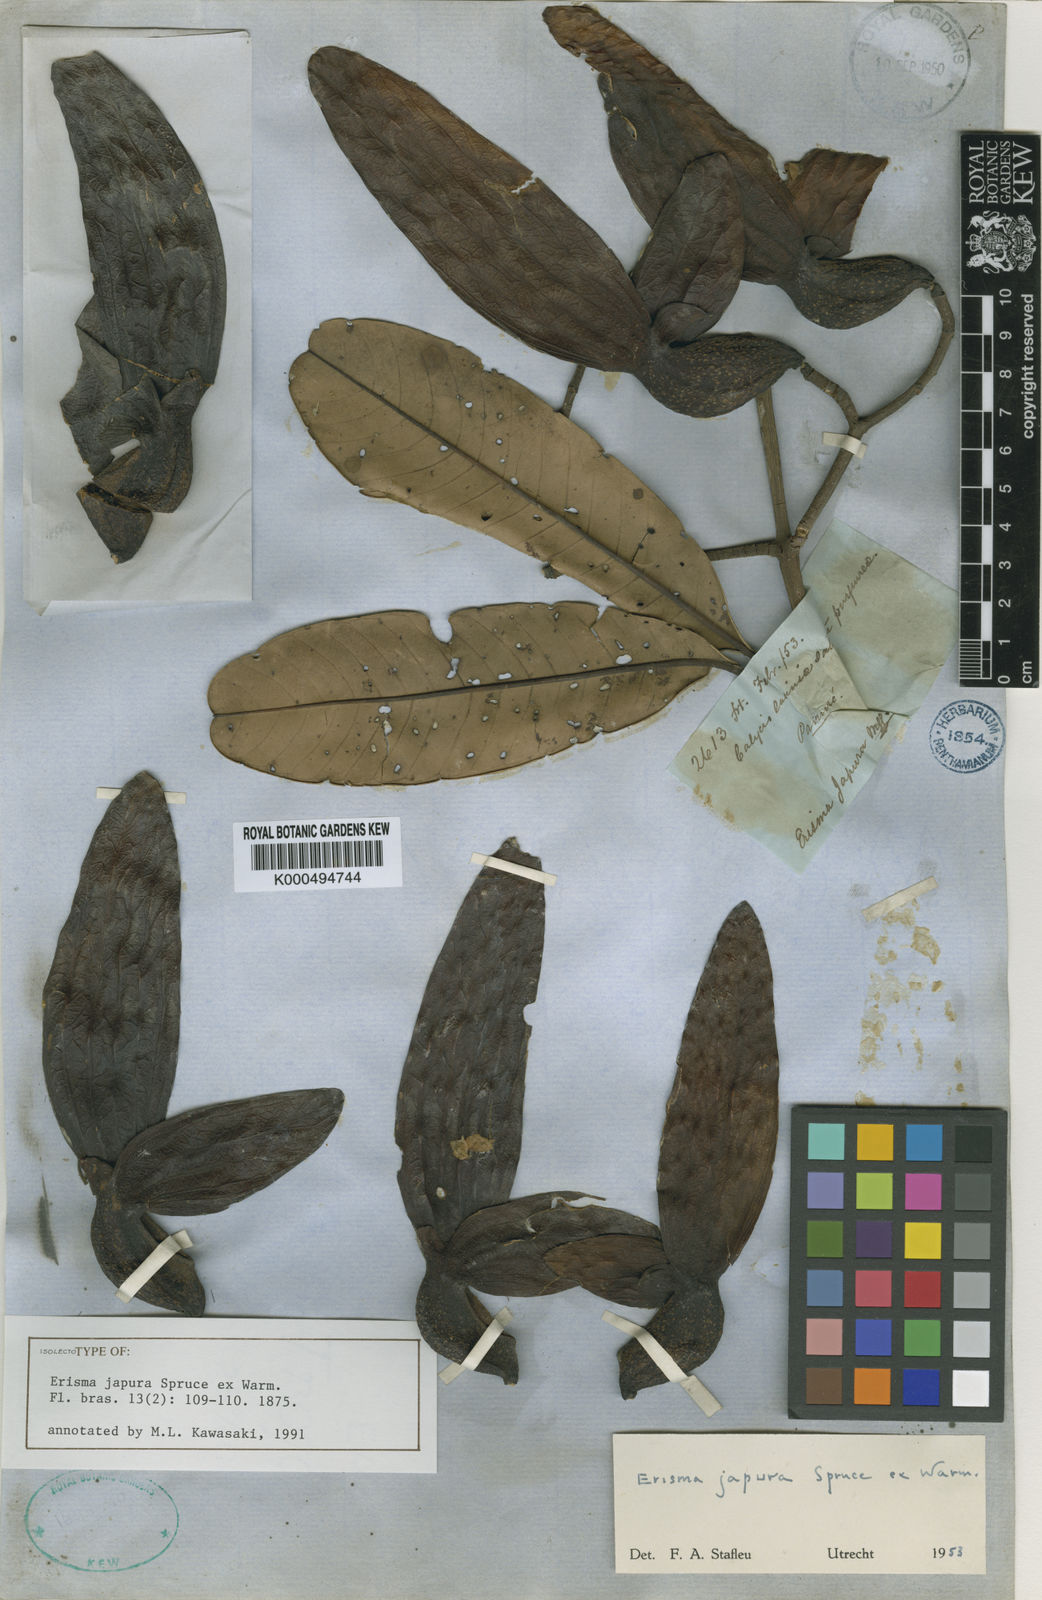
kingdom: Plantae
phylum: Tracheophyta
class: Magnoliopsida
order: Myrtales
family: Vochysiaceae
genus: Erisma
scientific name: Erisma japura
